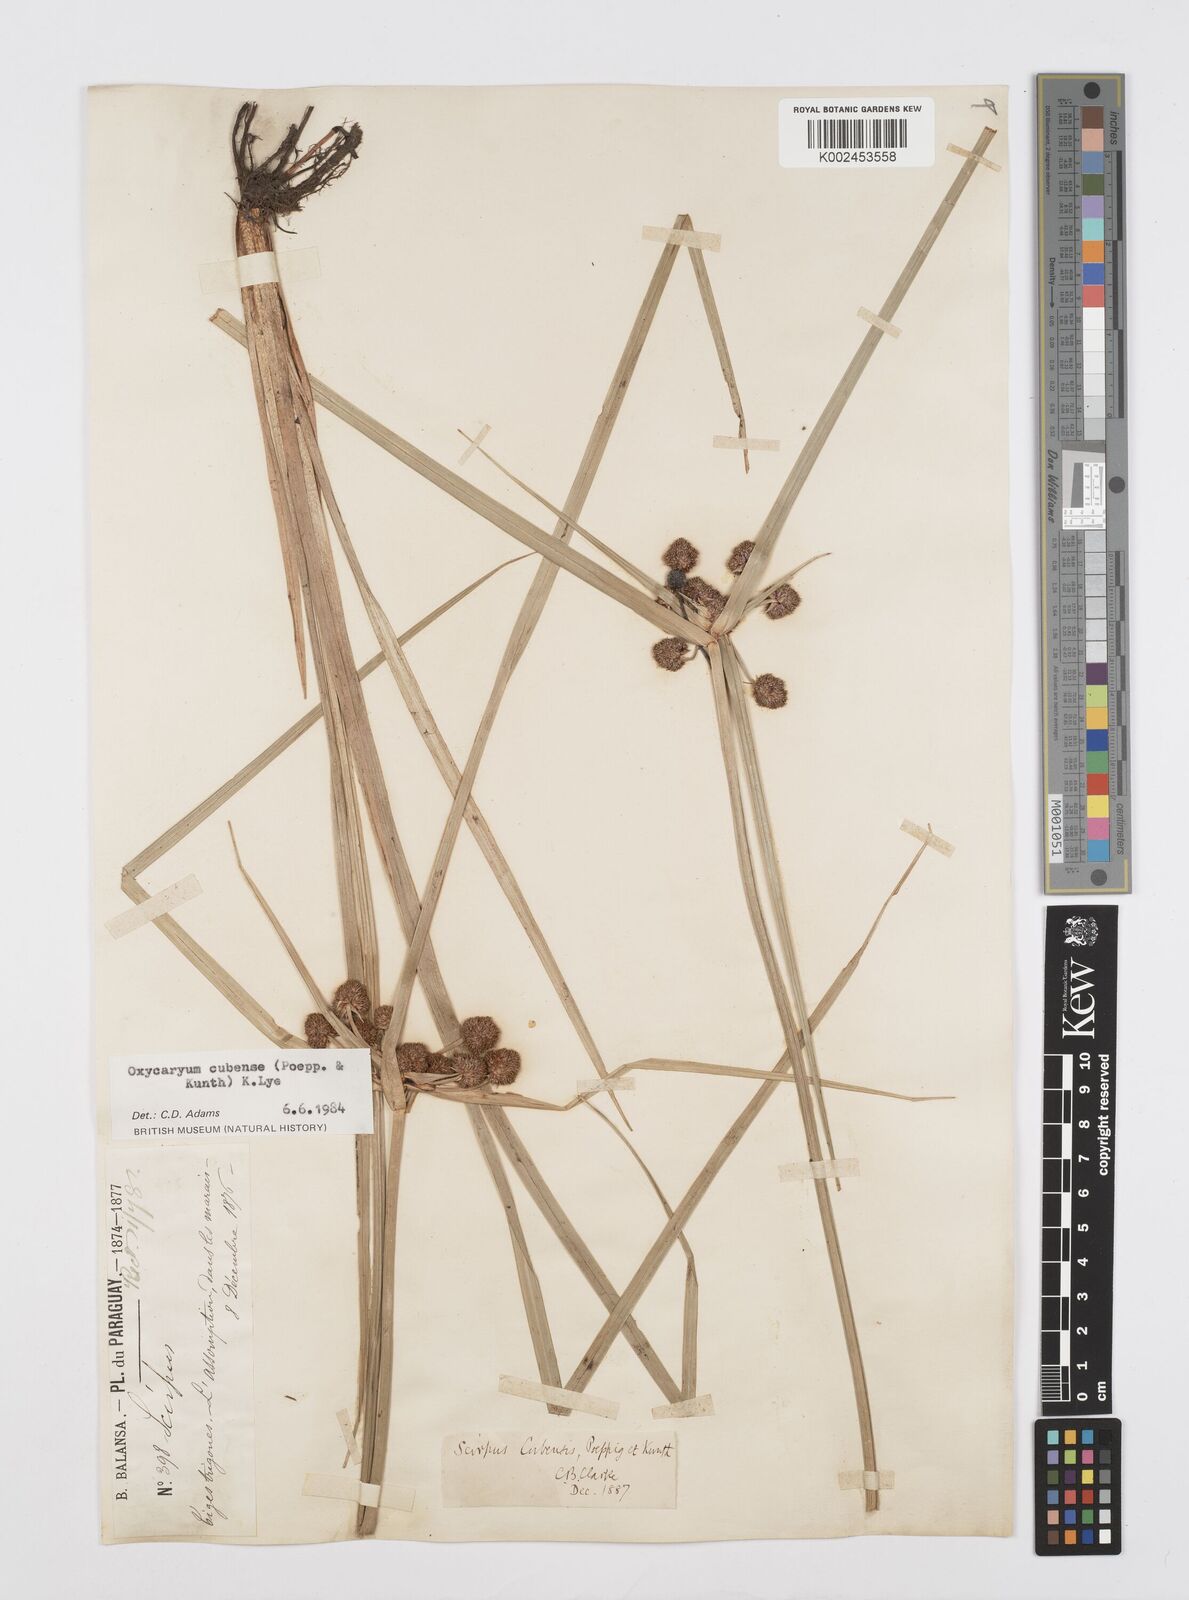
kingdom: Plantae
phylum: Tracheophyta
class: Liliopsida
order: Poales
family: Cyperaceae
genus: Cyperus
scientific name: Cyperus elegans
